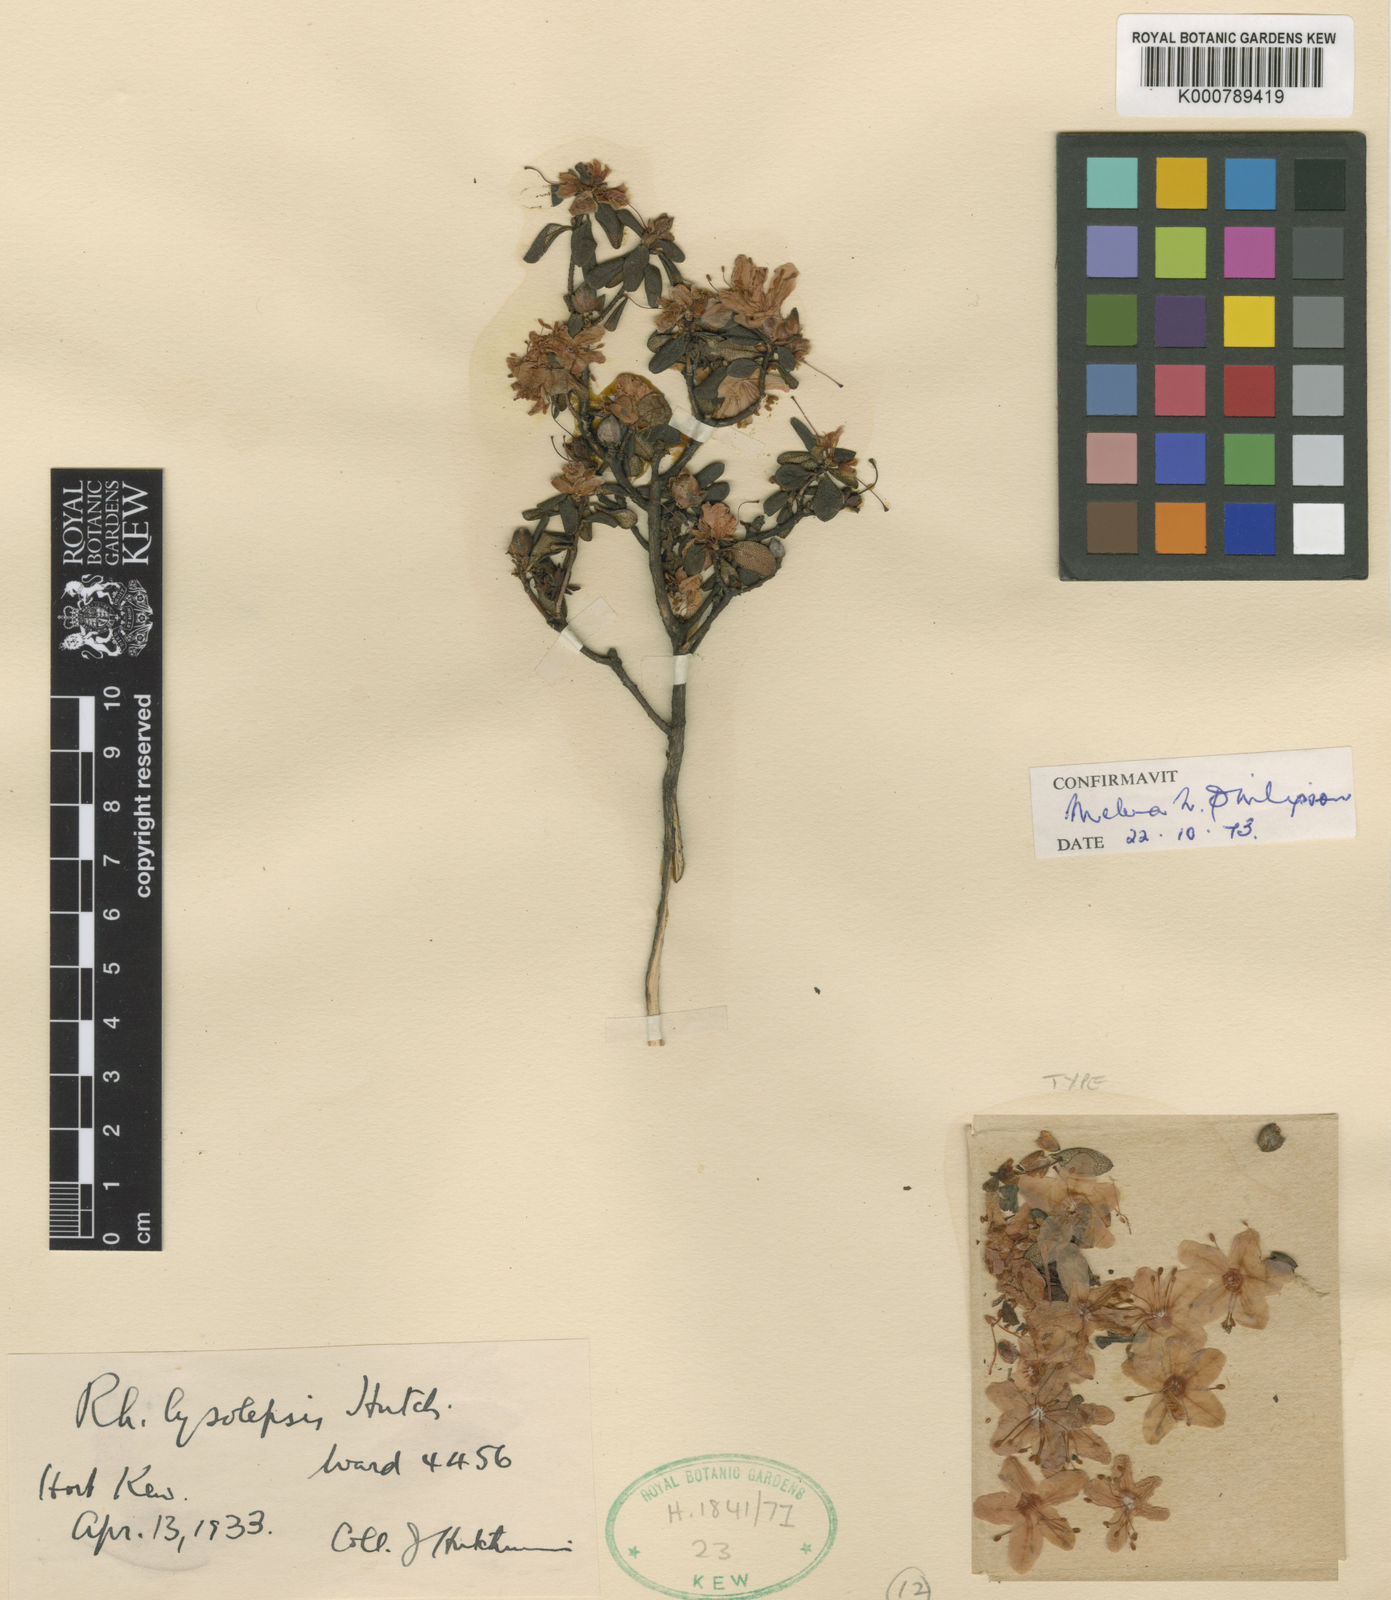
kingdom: Plantae
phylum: Tracheophyta
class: Magnoliopsida
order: Ericales
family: Ericaceae
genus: Rhododendron
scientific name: Rhododendron
